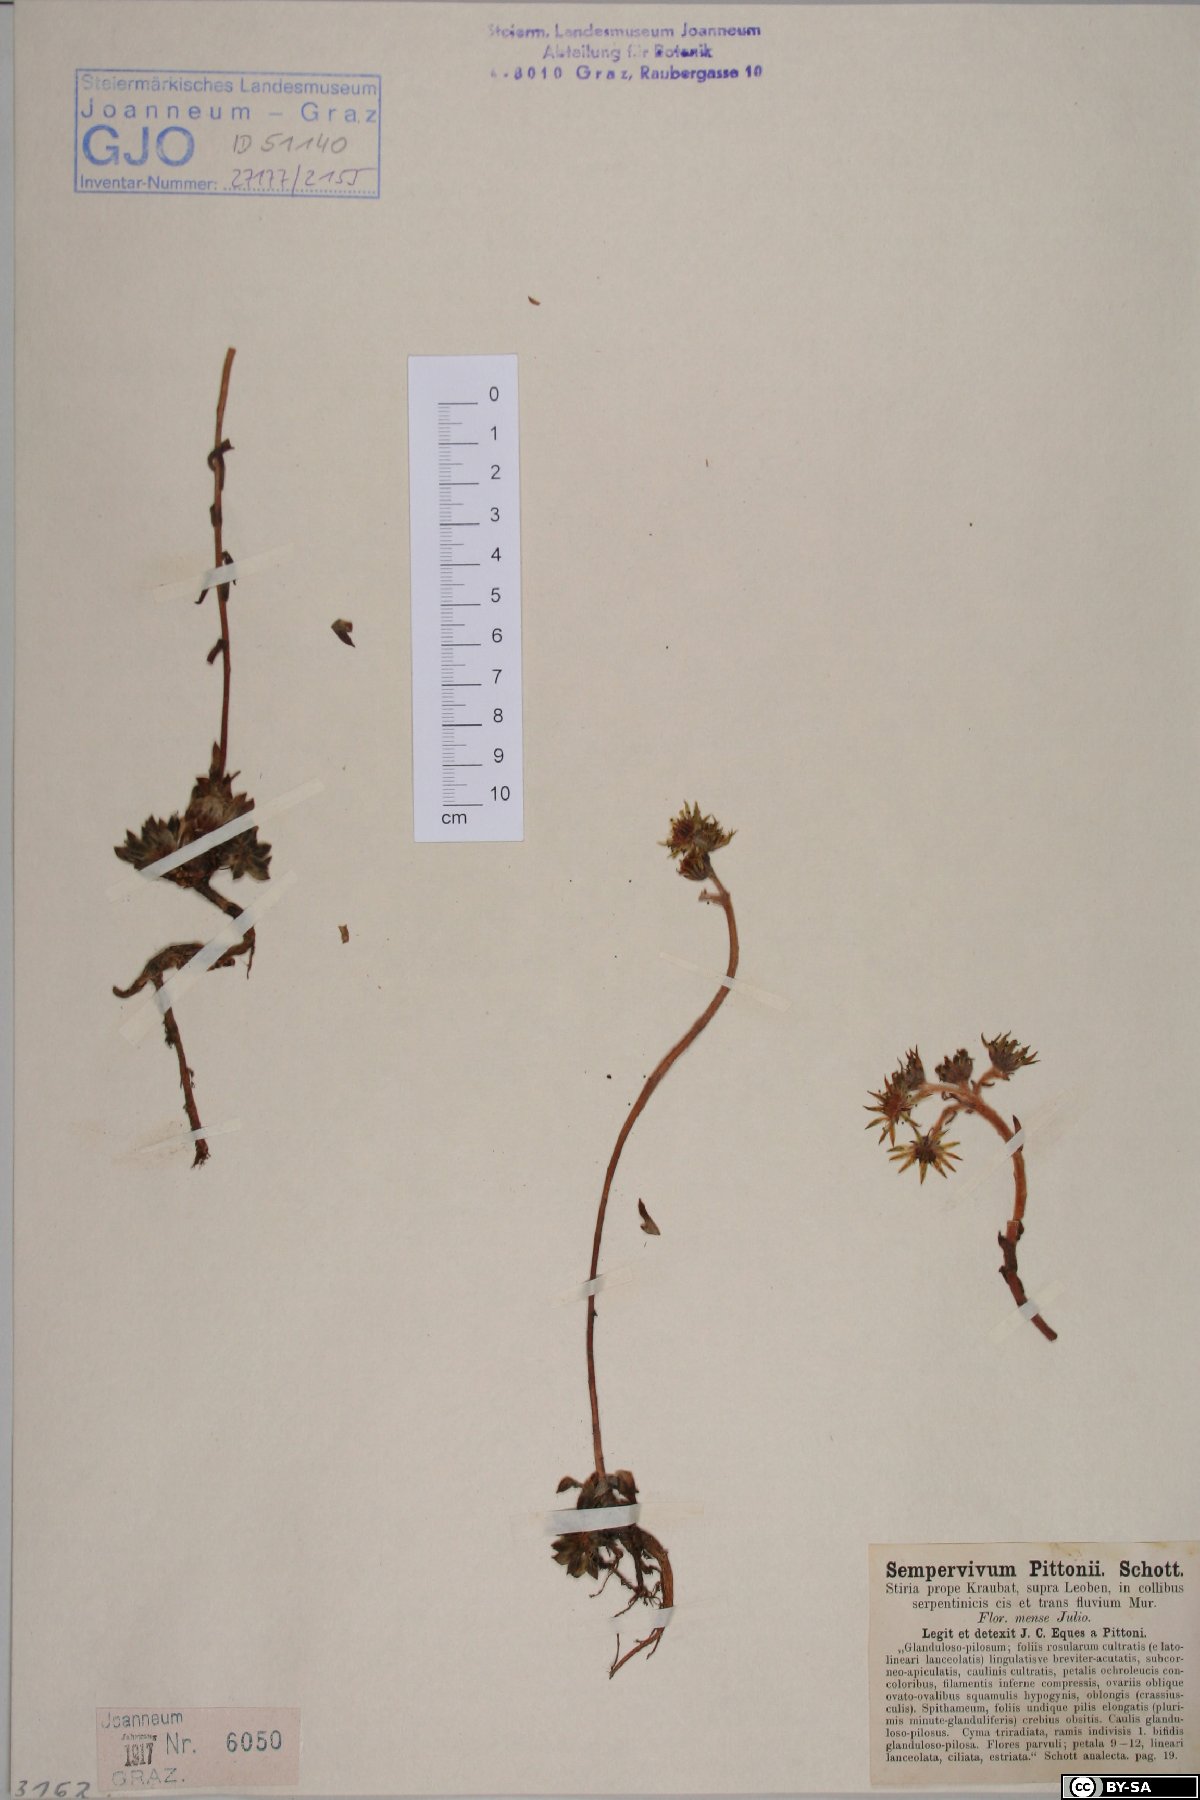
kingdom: Plantae
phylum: Tracheophyta
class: Magnoliopsida
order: Saxifragales
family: Crassulaceae
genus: Sempervivum
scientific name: Sempervivum pittonii
